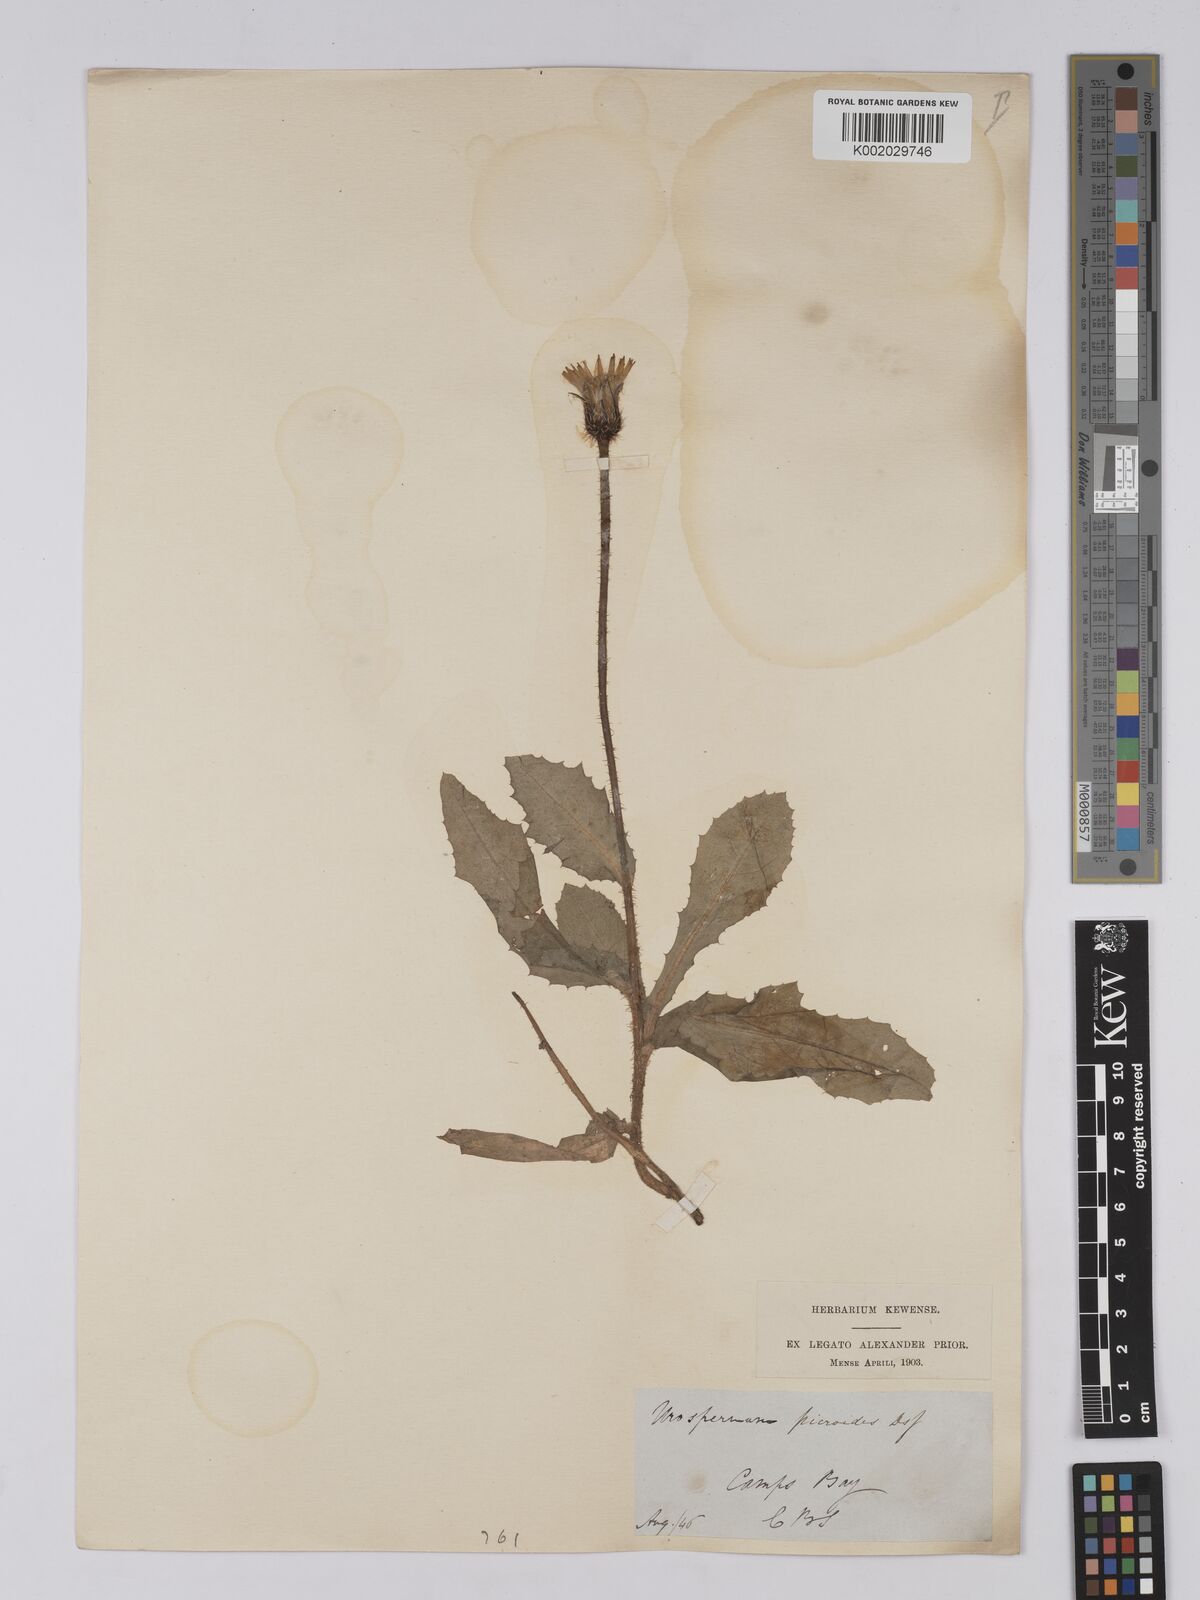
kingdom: Plantae
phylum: Tracheophyta
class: Magnoliopsida
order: Asterales
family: Asteraceae
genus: Urospermum
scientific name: Urospermum picroides
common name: False hawkbit
